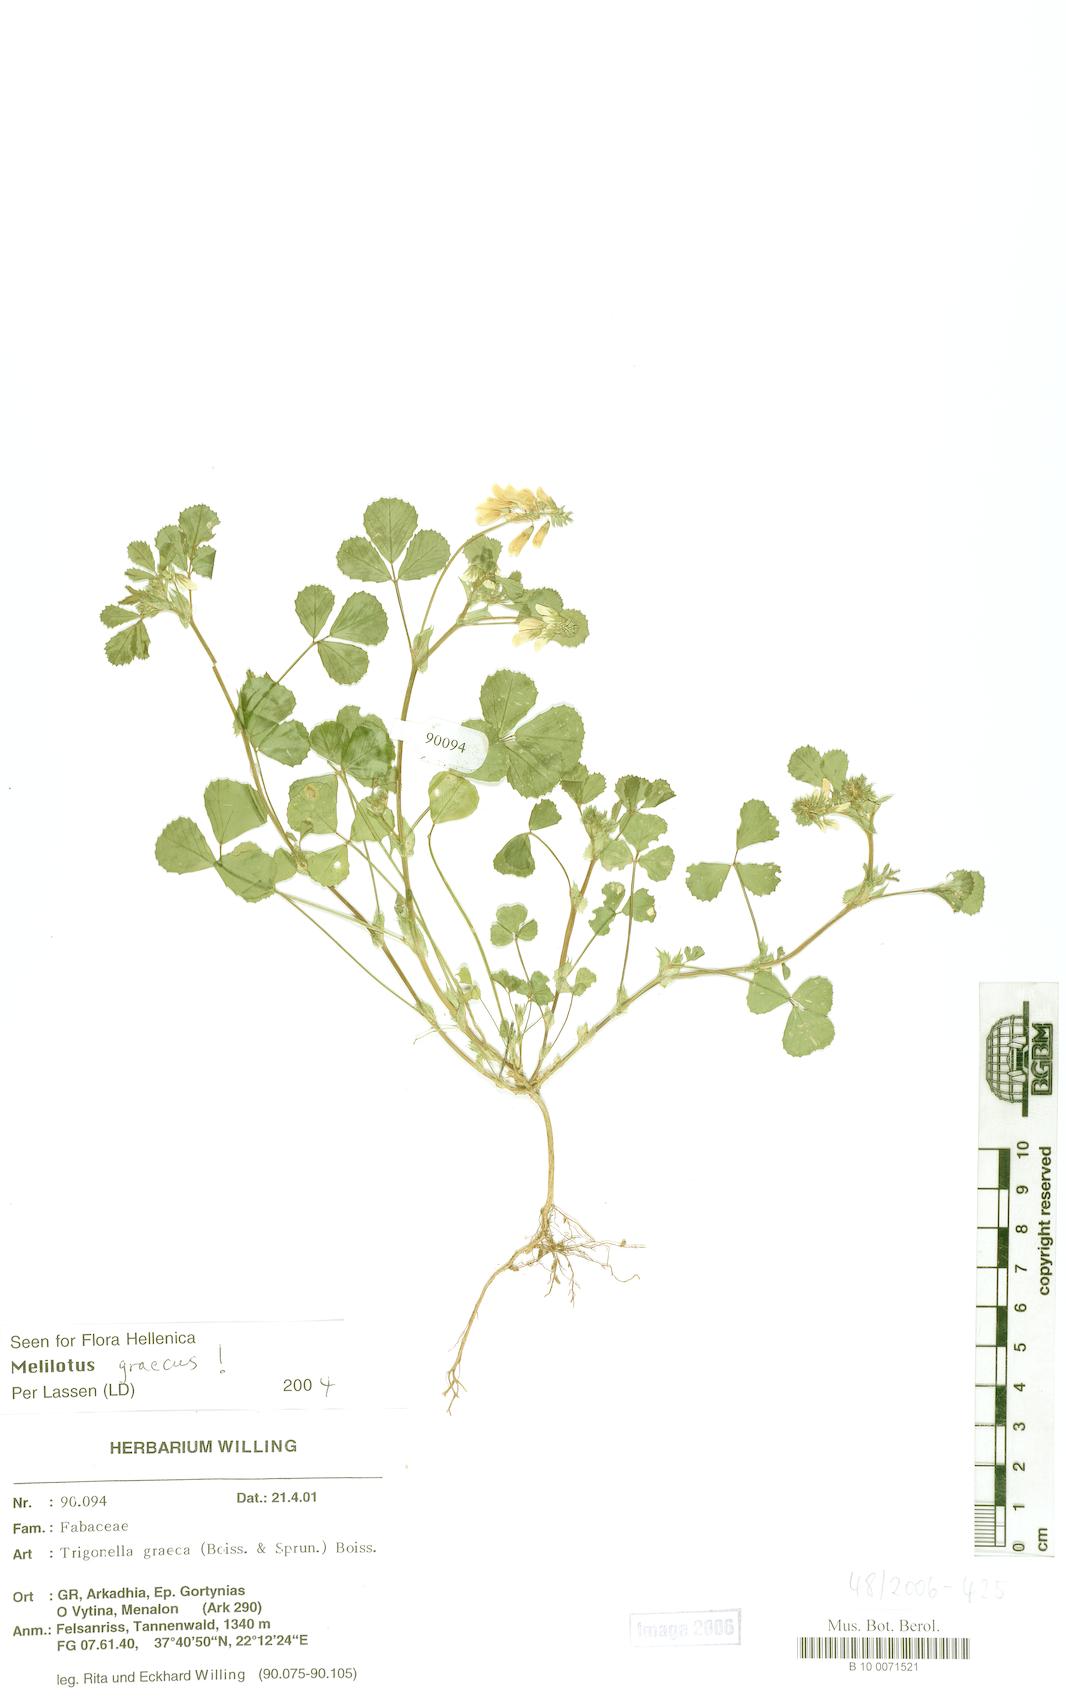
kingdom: Plantae
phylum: Tracheophyta
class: Magnoliopsida
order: Fabales
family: Fabaceae
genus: Trigonella
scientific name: Trigonella graeca
